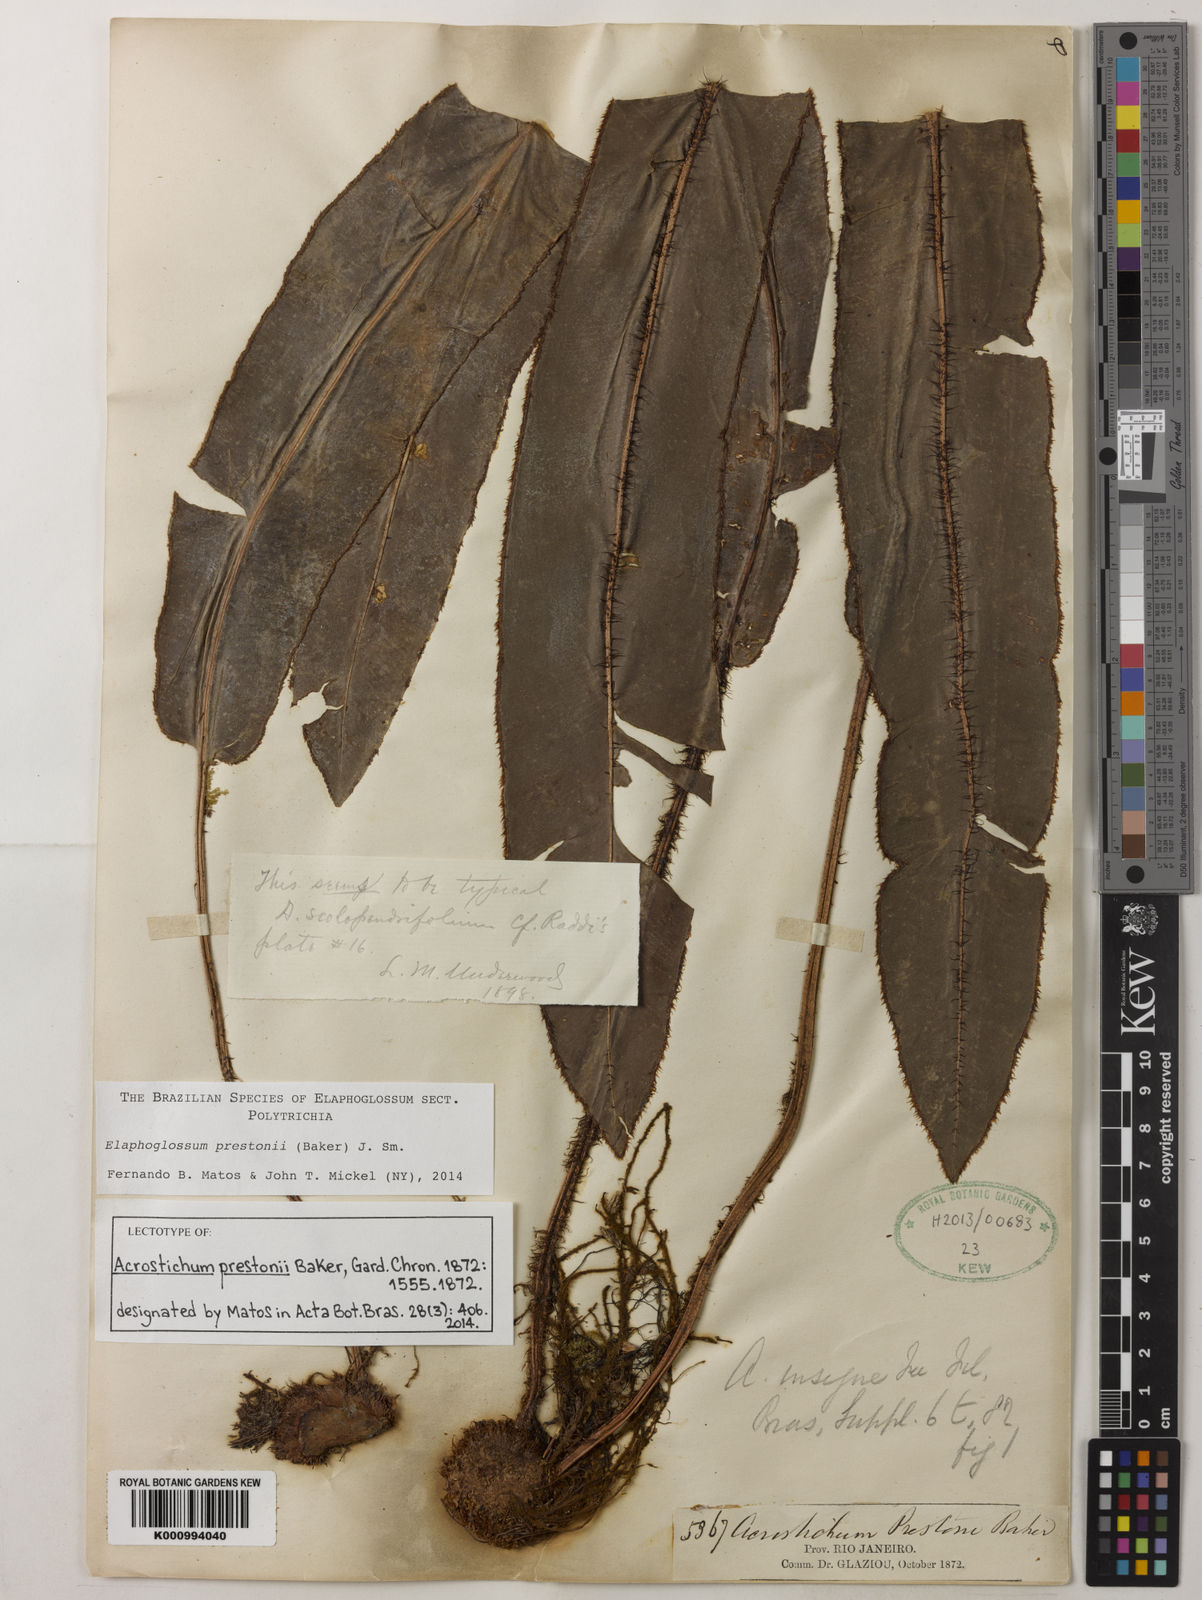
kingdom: Plantae
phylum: Tracheophyta
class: Polypodiopsida
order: Polypodiales
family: Dryopteridaceae
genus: Elaphoglossum
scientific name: Elaphoglossum prestonii
